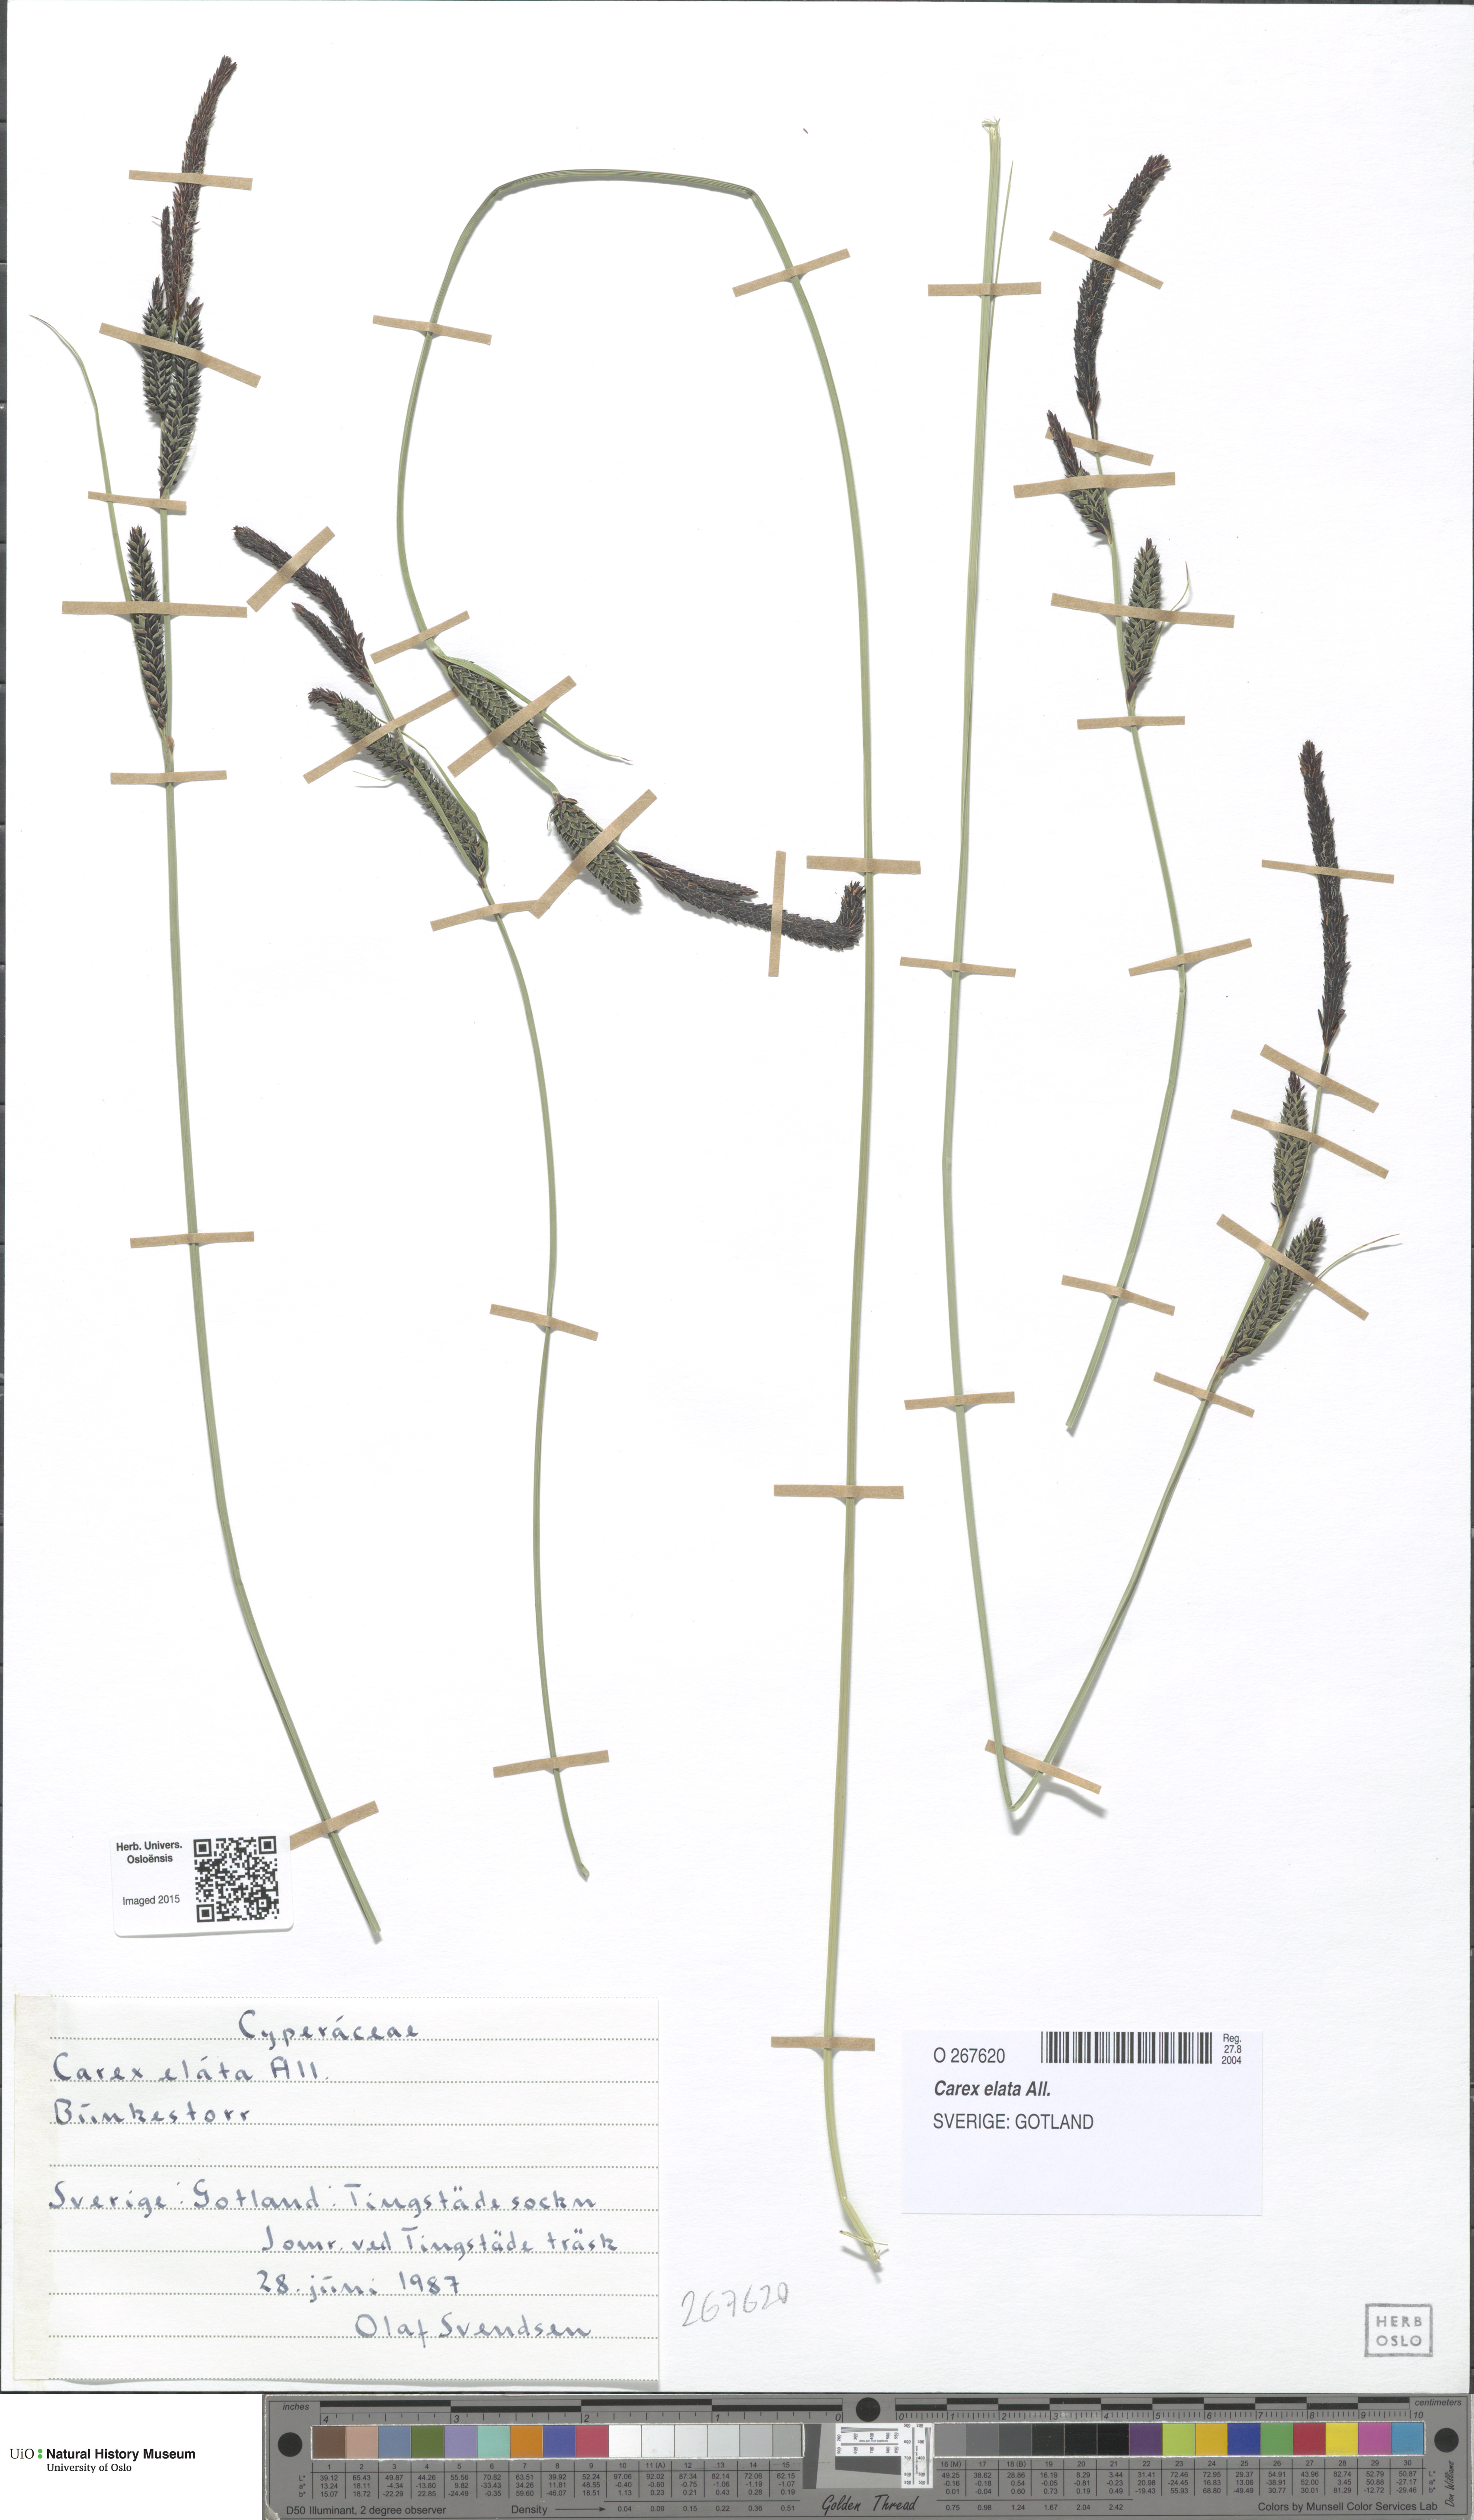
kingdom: Plantae
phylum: Tracheophyta
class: Liliopsida
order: Poales
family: Cyperaceae
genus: Carex
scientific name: Carex elata
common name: Tufted sedge
